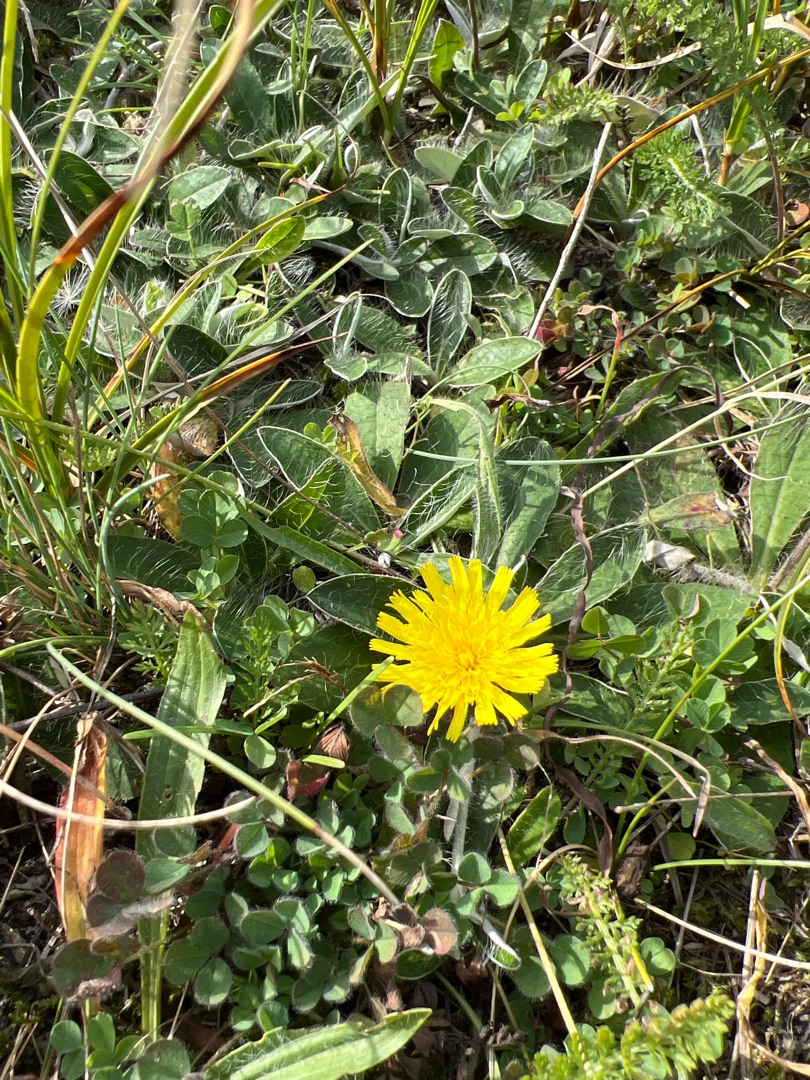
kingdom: Plantae
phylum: Tracheophyta
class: Magnoliopsida
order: Asterales
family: Asteraceae
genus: Pilosella
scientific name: Pilosella officinarum
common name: Håret høgeurt
